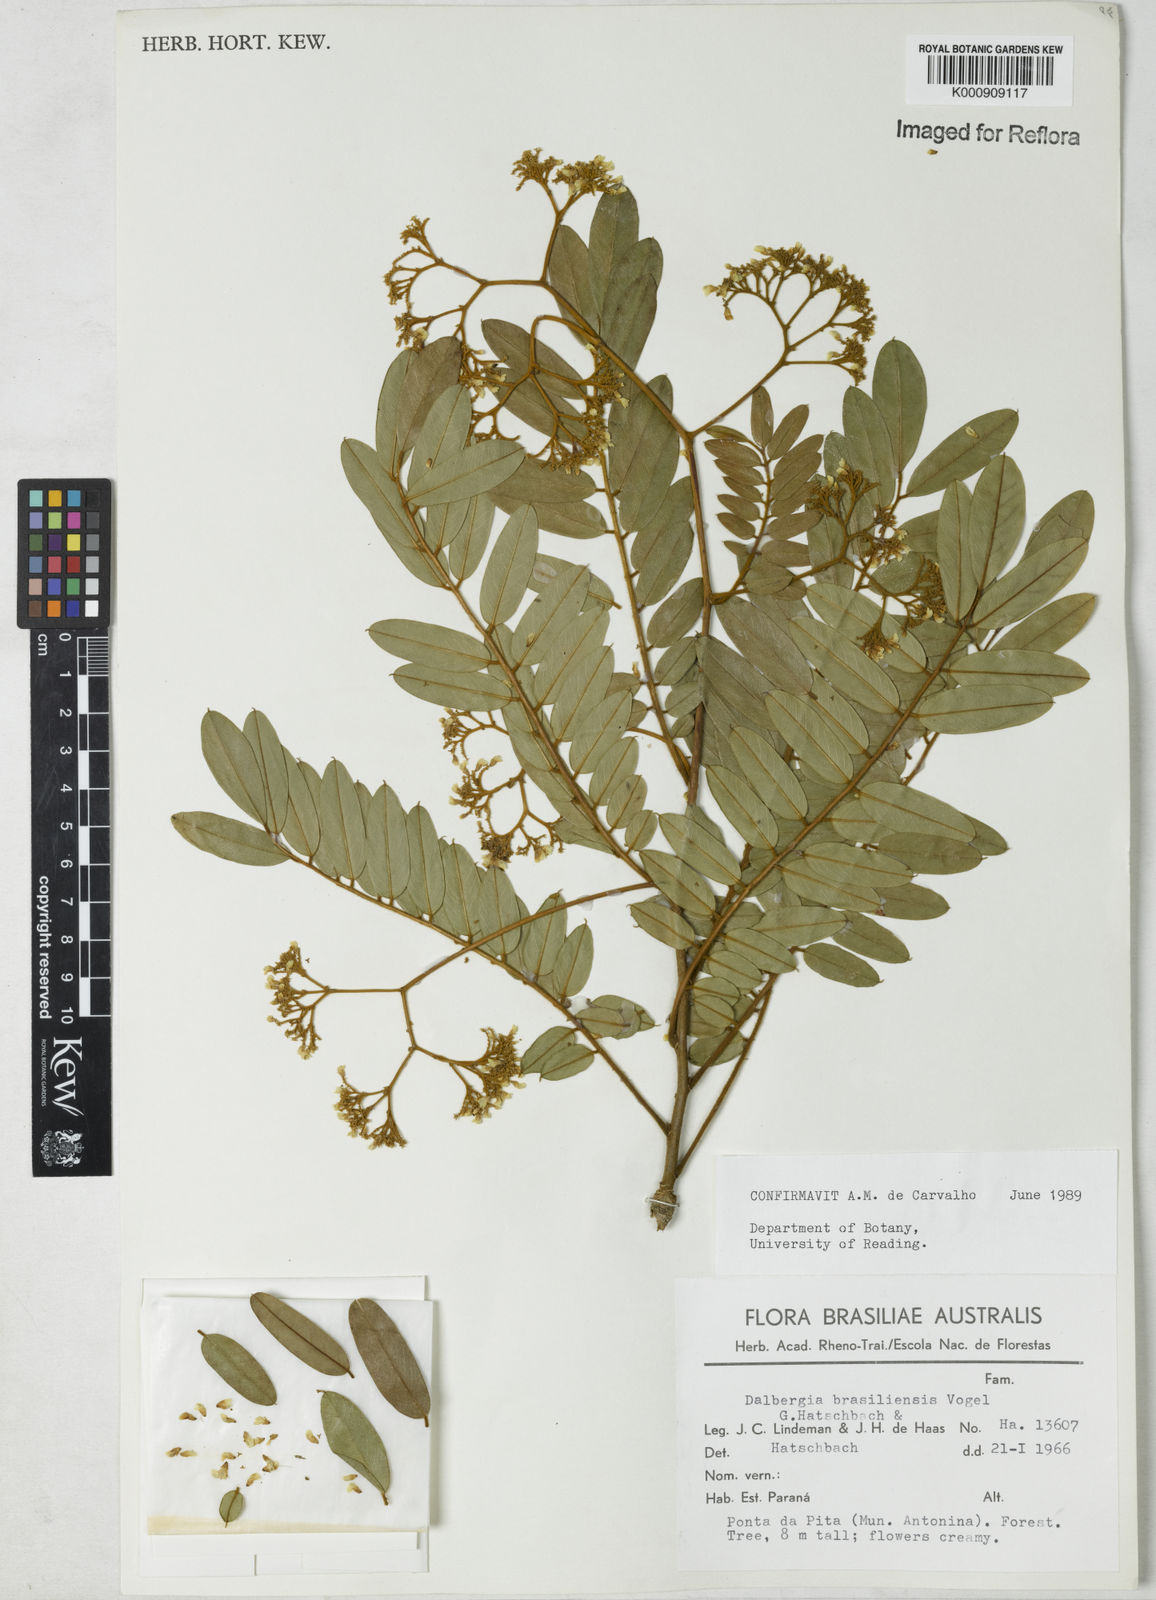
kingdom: Plantae
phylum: Tracheophyta
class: Magnoliopsida
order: Fabales
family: Fabaceae
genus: Dalbergia
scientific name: Dalbergia brasiliensis
